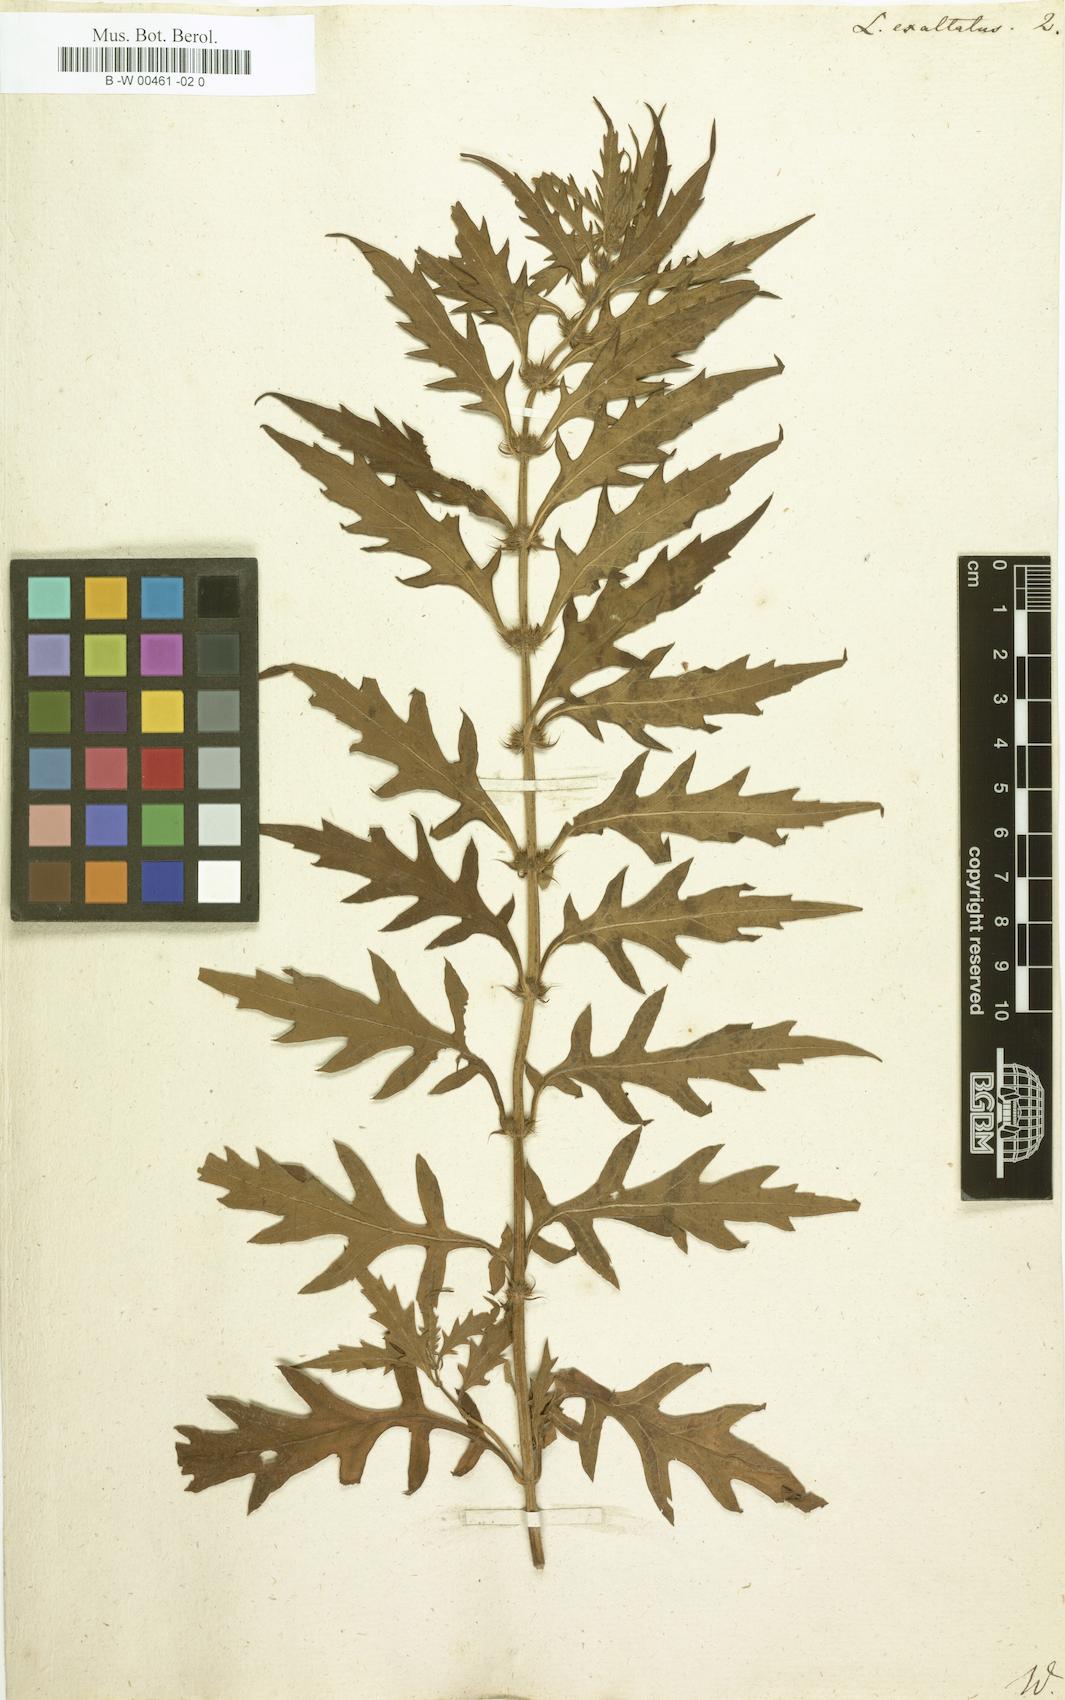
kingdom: Plantae
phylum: Tracheophyta
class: Magnoliopsida
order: Lamiales
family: Lamiaceae
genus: Lycopus
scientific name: Lycopus exaltatus
